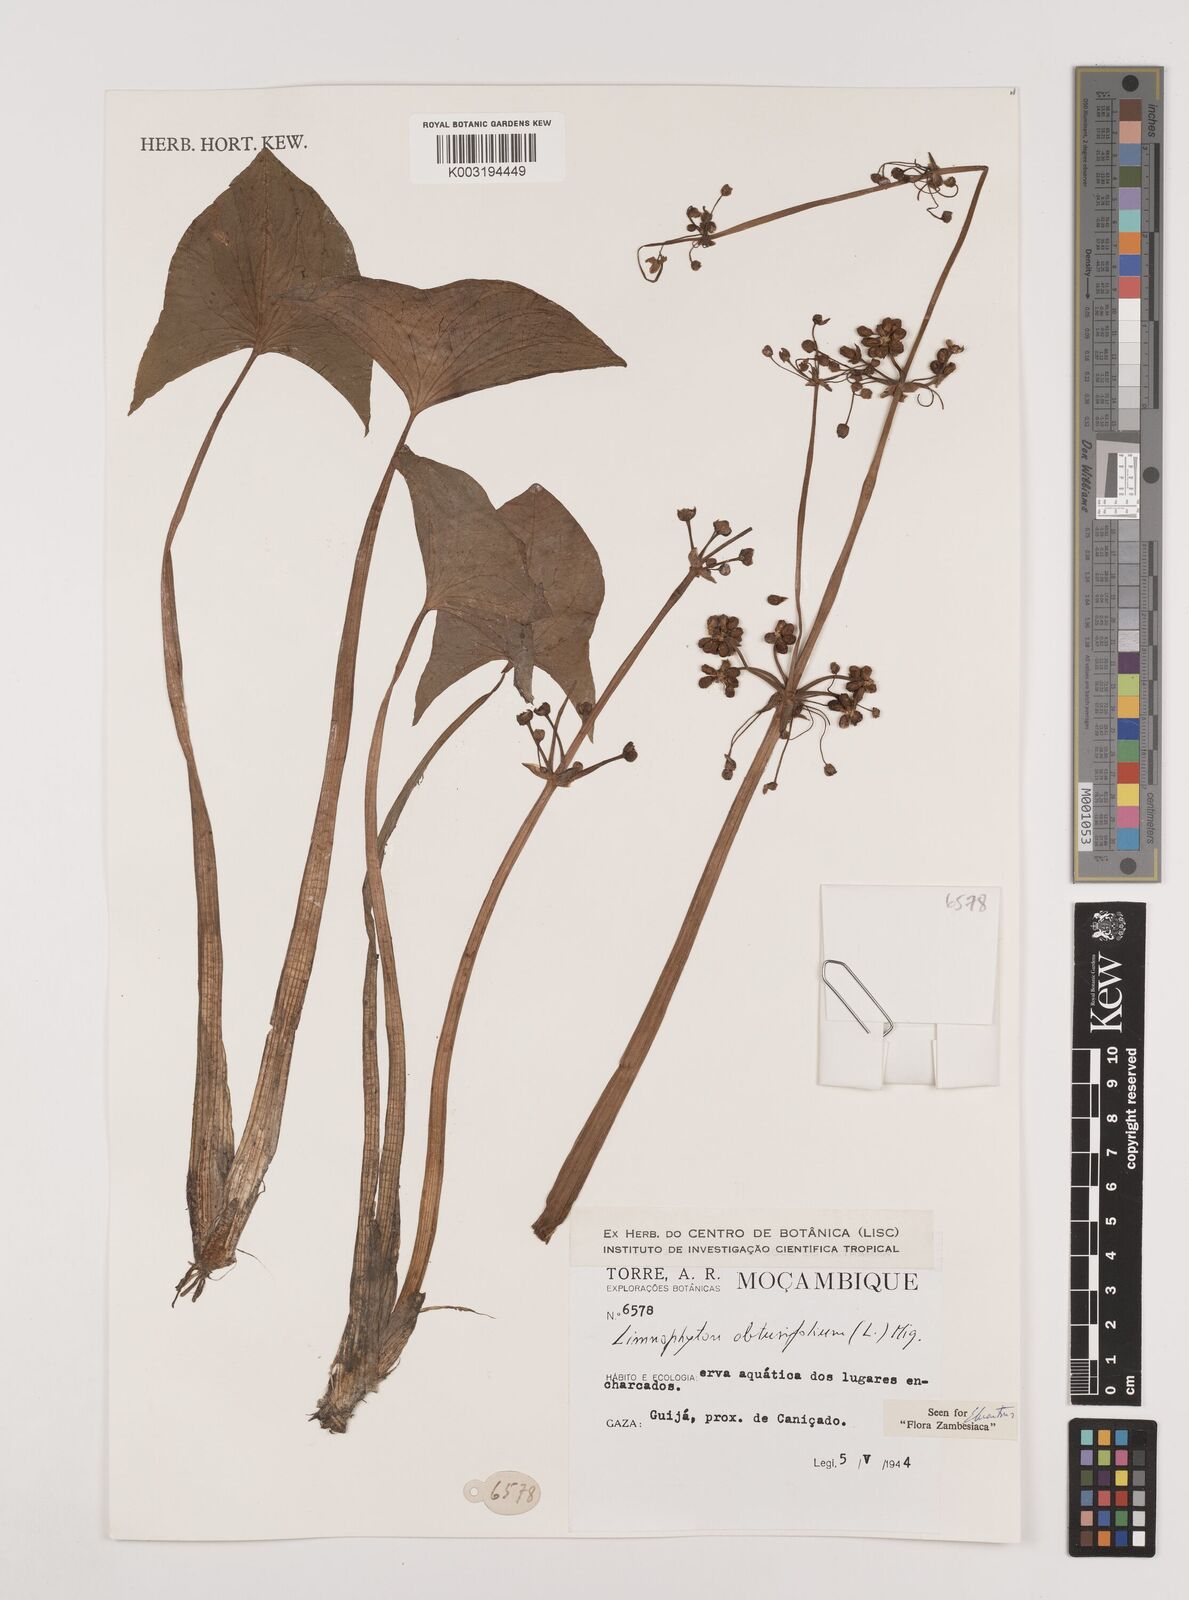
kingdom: Plantae
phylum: Tracheophyta
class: Liliopsida
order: Alismatales
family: Alismataceae
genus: Limnophyton
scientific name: Limnophyton obtusifolium
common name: Arrow head
